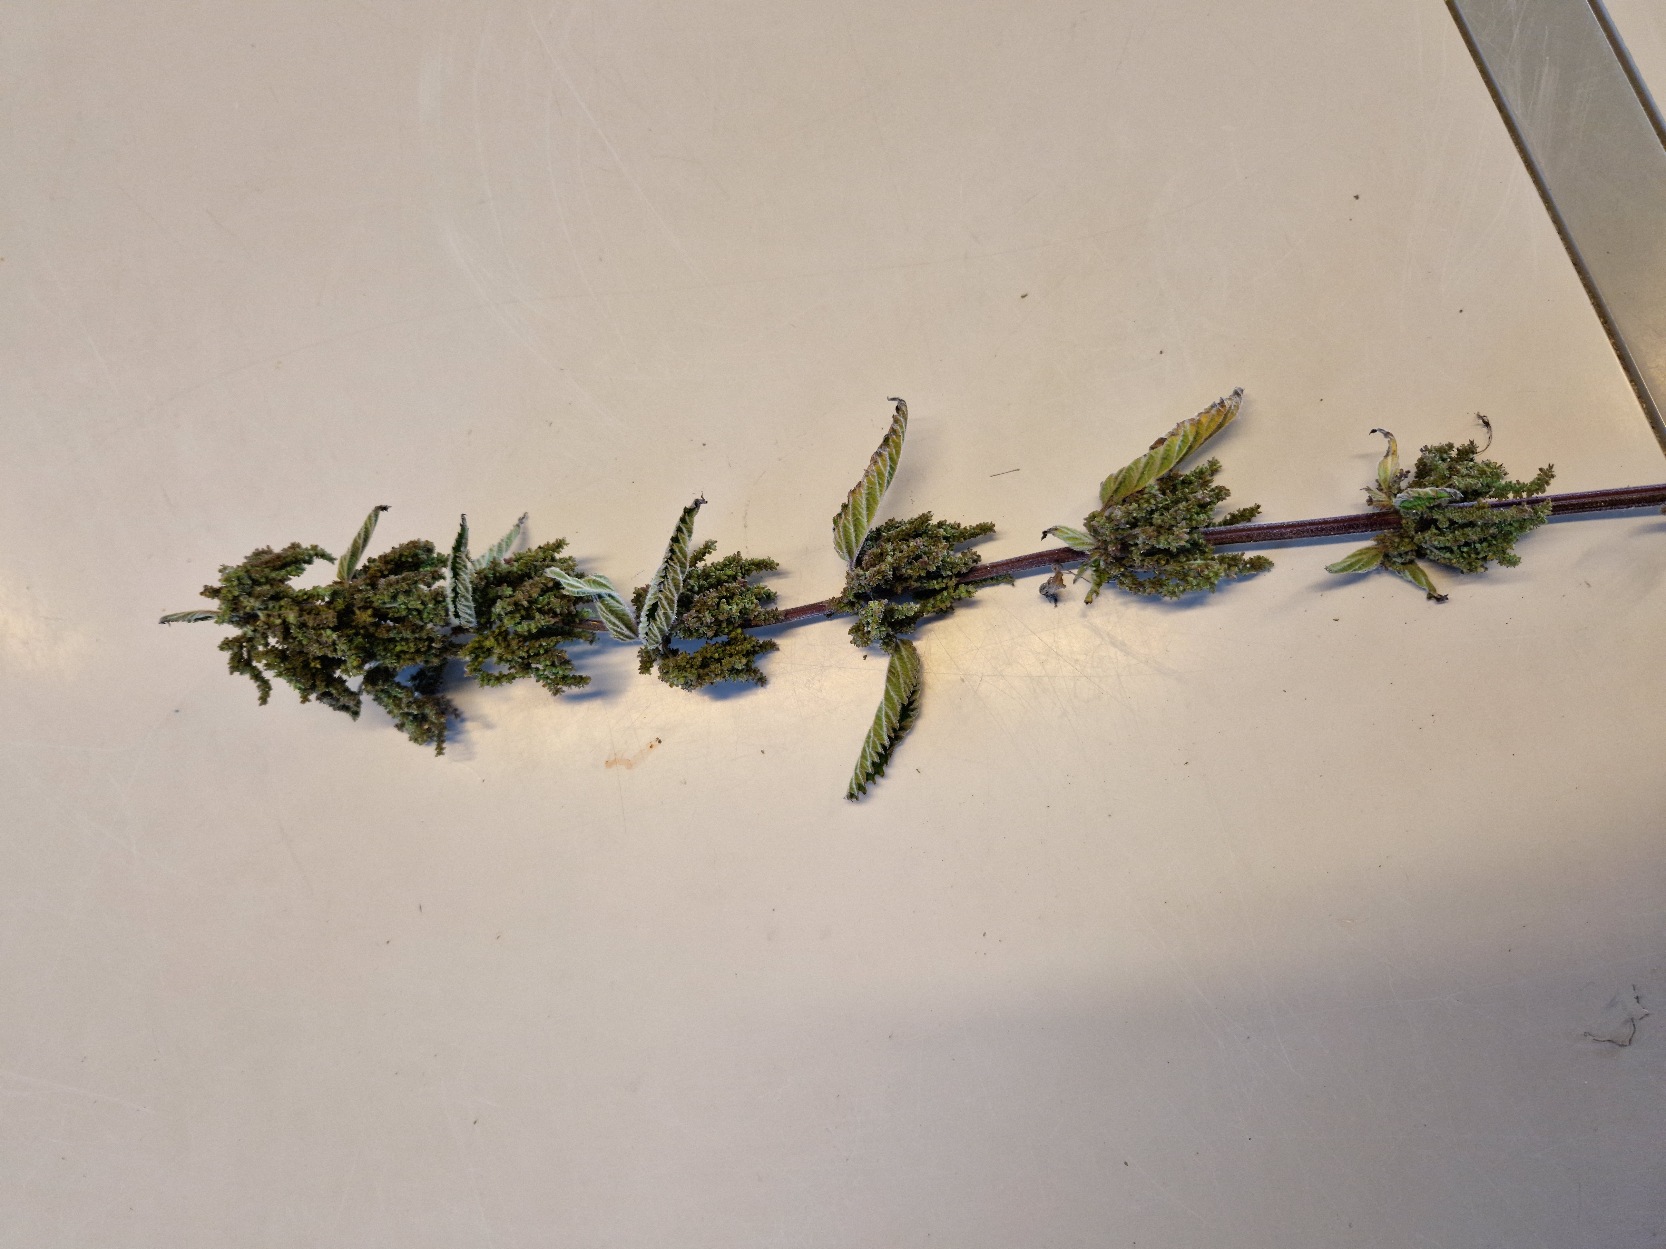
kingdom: Plantae
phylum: Tracheophyta
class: Magnoliopsida
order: Rosales
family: Urticaceae
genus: Urtica
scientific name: Urtica dioica
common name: Stor nælde
